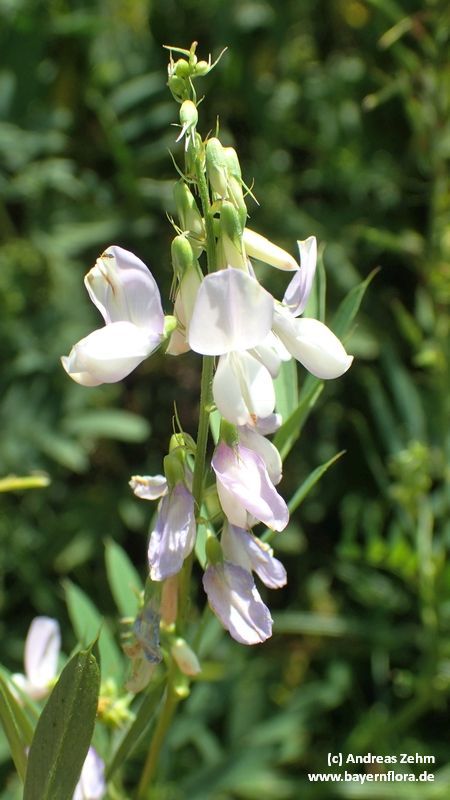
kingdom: Plantae
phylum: Tracheophyta
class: Magnoliopsida
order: Fabales
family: Fabaceae
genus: Galega
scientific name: Galega officinalis
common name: Goat's-rue
